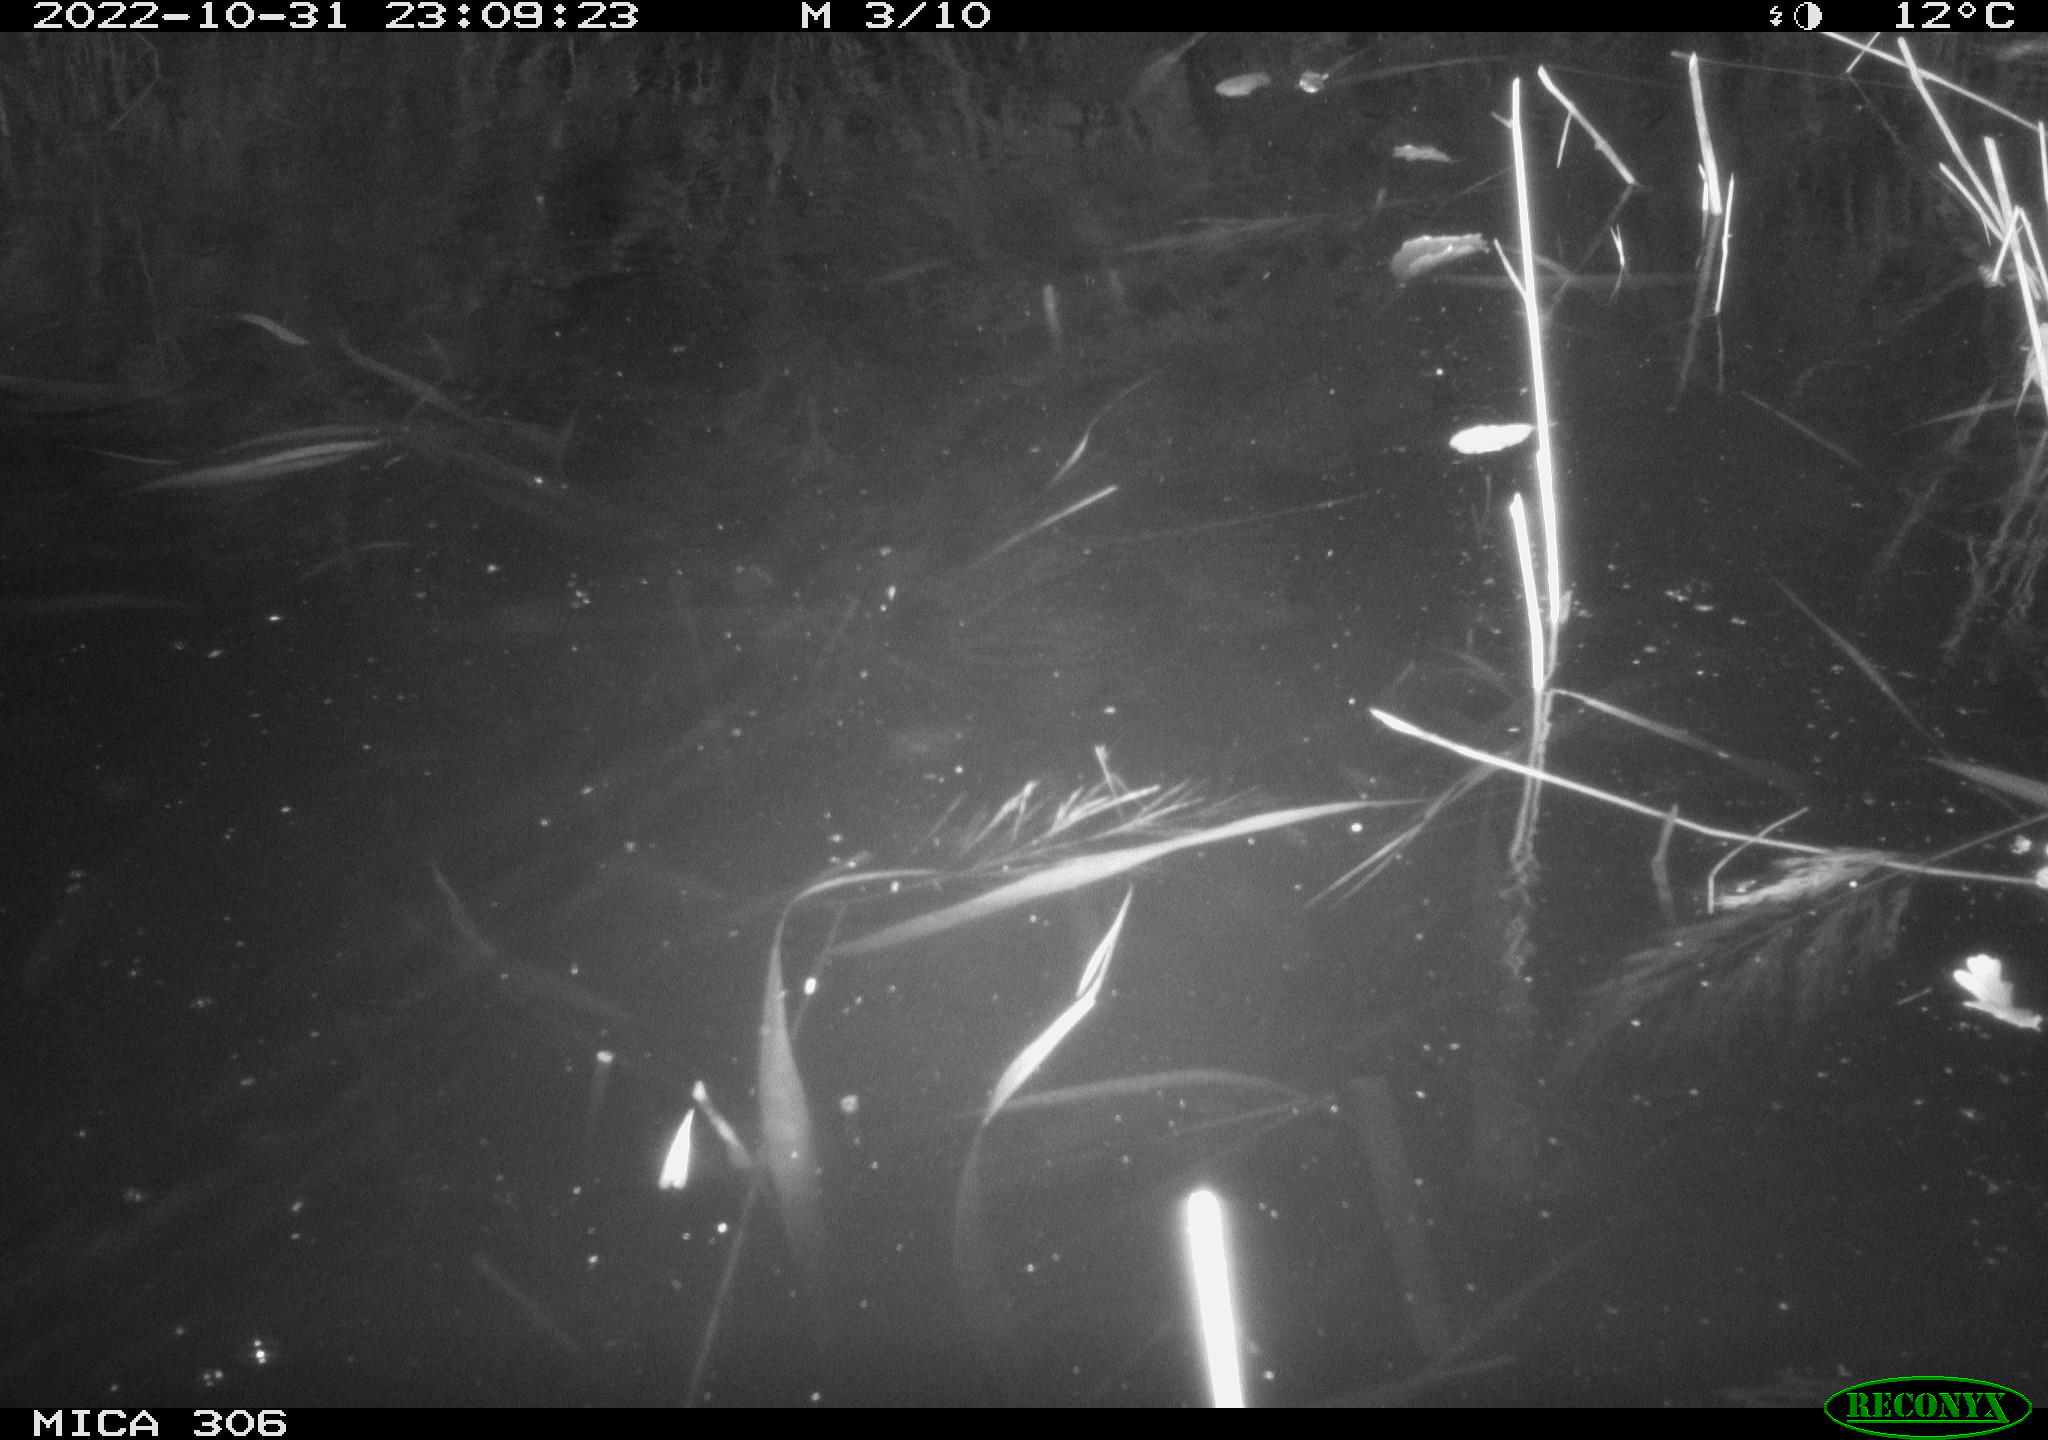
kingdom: Animalia
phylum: Chordata
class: Mammalia
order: Rodentia
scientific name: Rodentia
